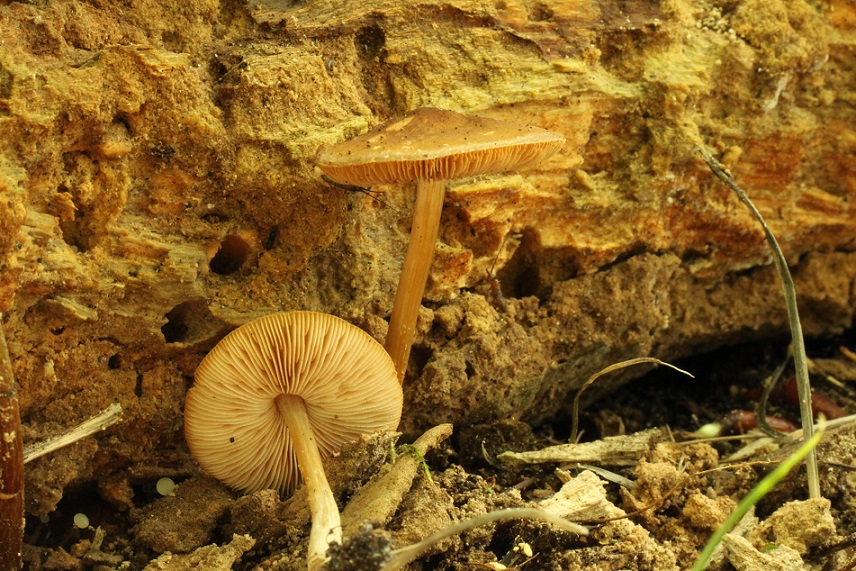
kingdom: Fungi
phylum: Basidiomycota
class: Agaricomycetes
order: Agaricales
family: Pluteaceae
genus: Pluteus
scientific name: Pluteus phlebophorus
